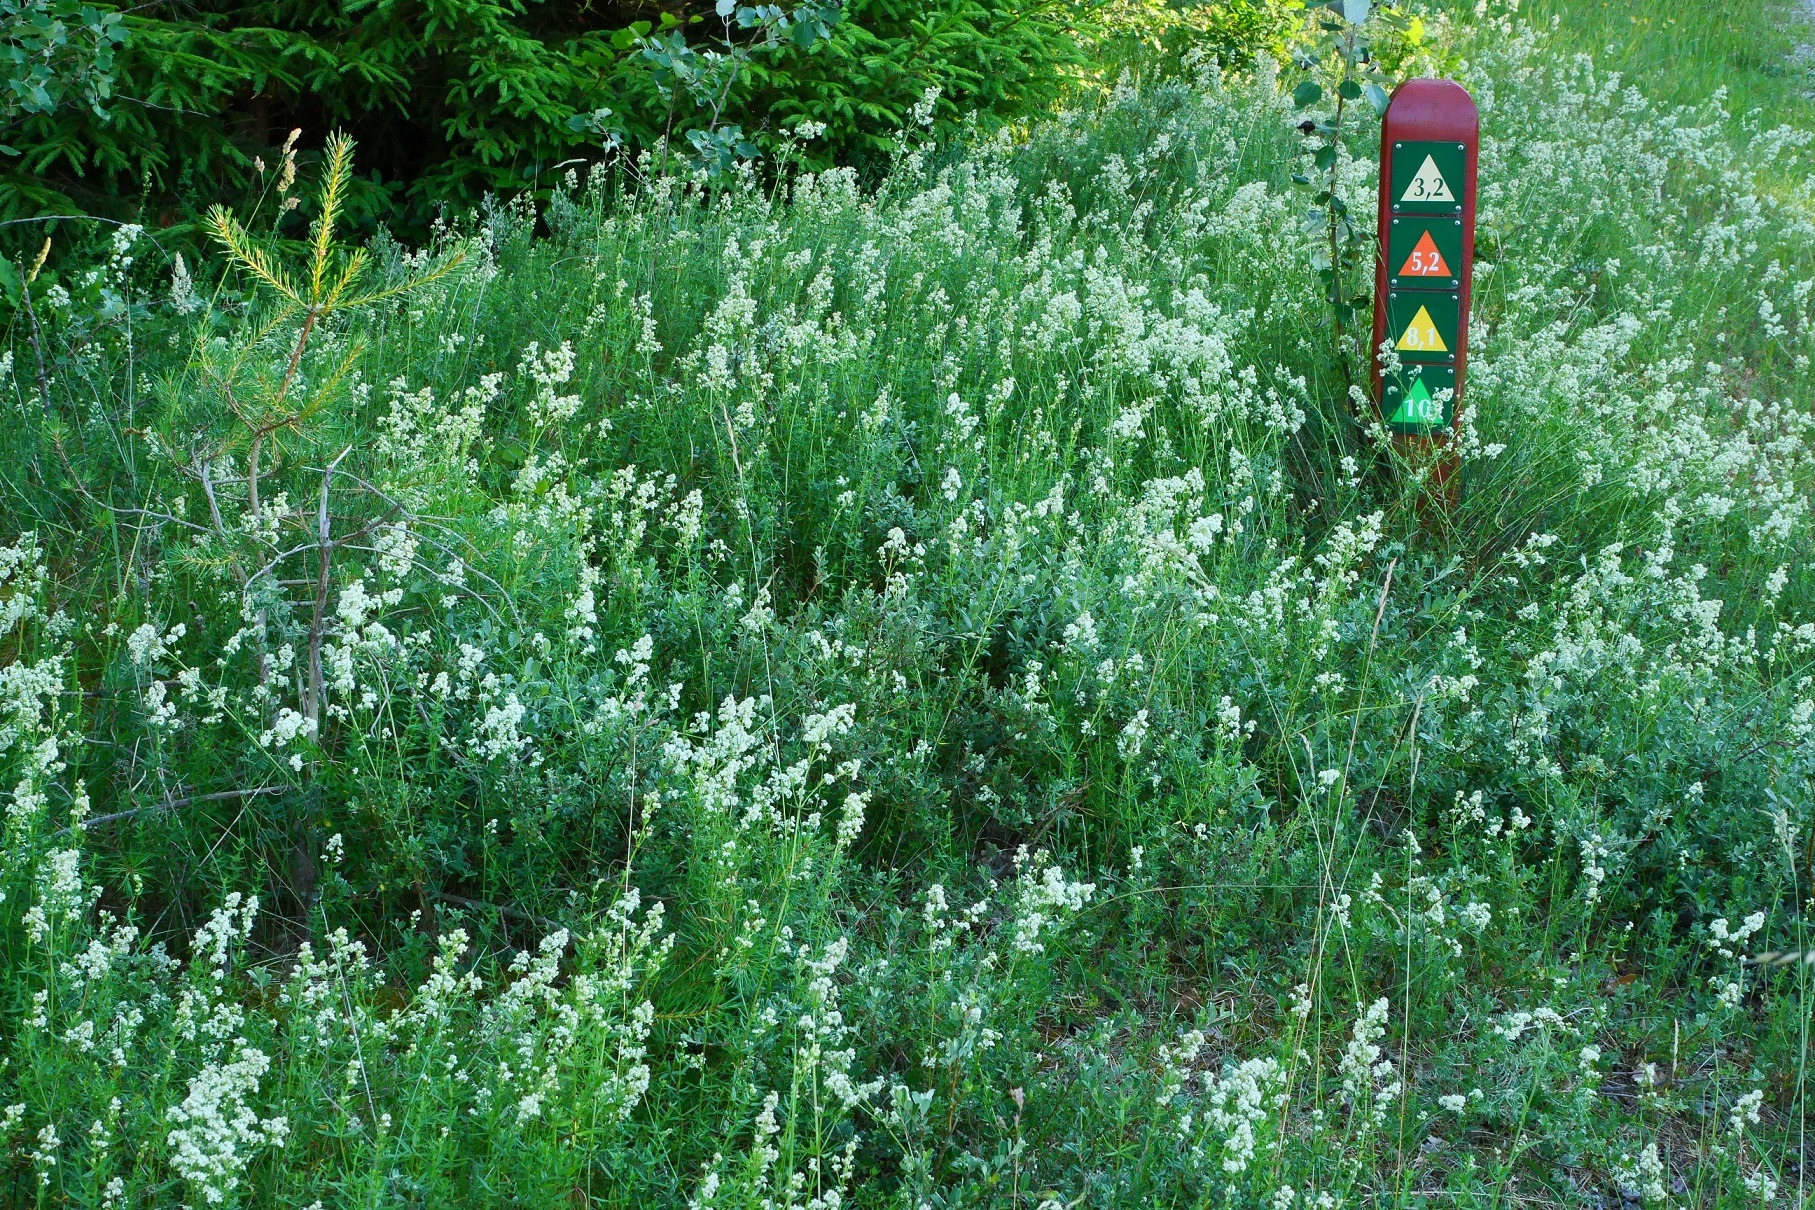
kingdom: Plantae
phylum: Tracheophyta
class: Magnoliopsida
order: Gentianales
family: Rubiaceae
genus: Galium
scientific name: Galium boreale
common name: Trenervet snerre
